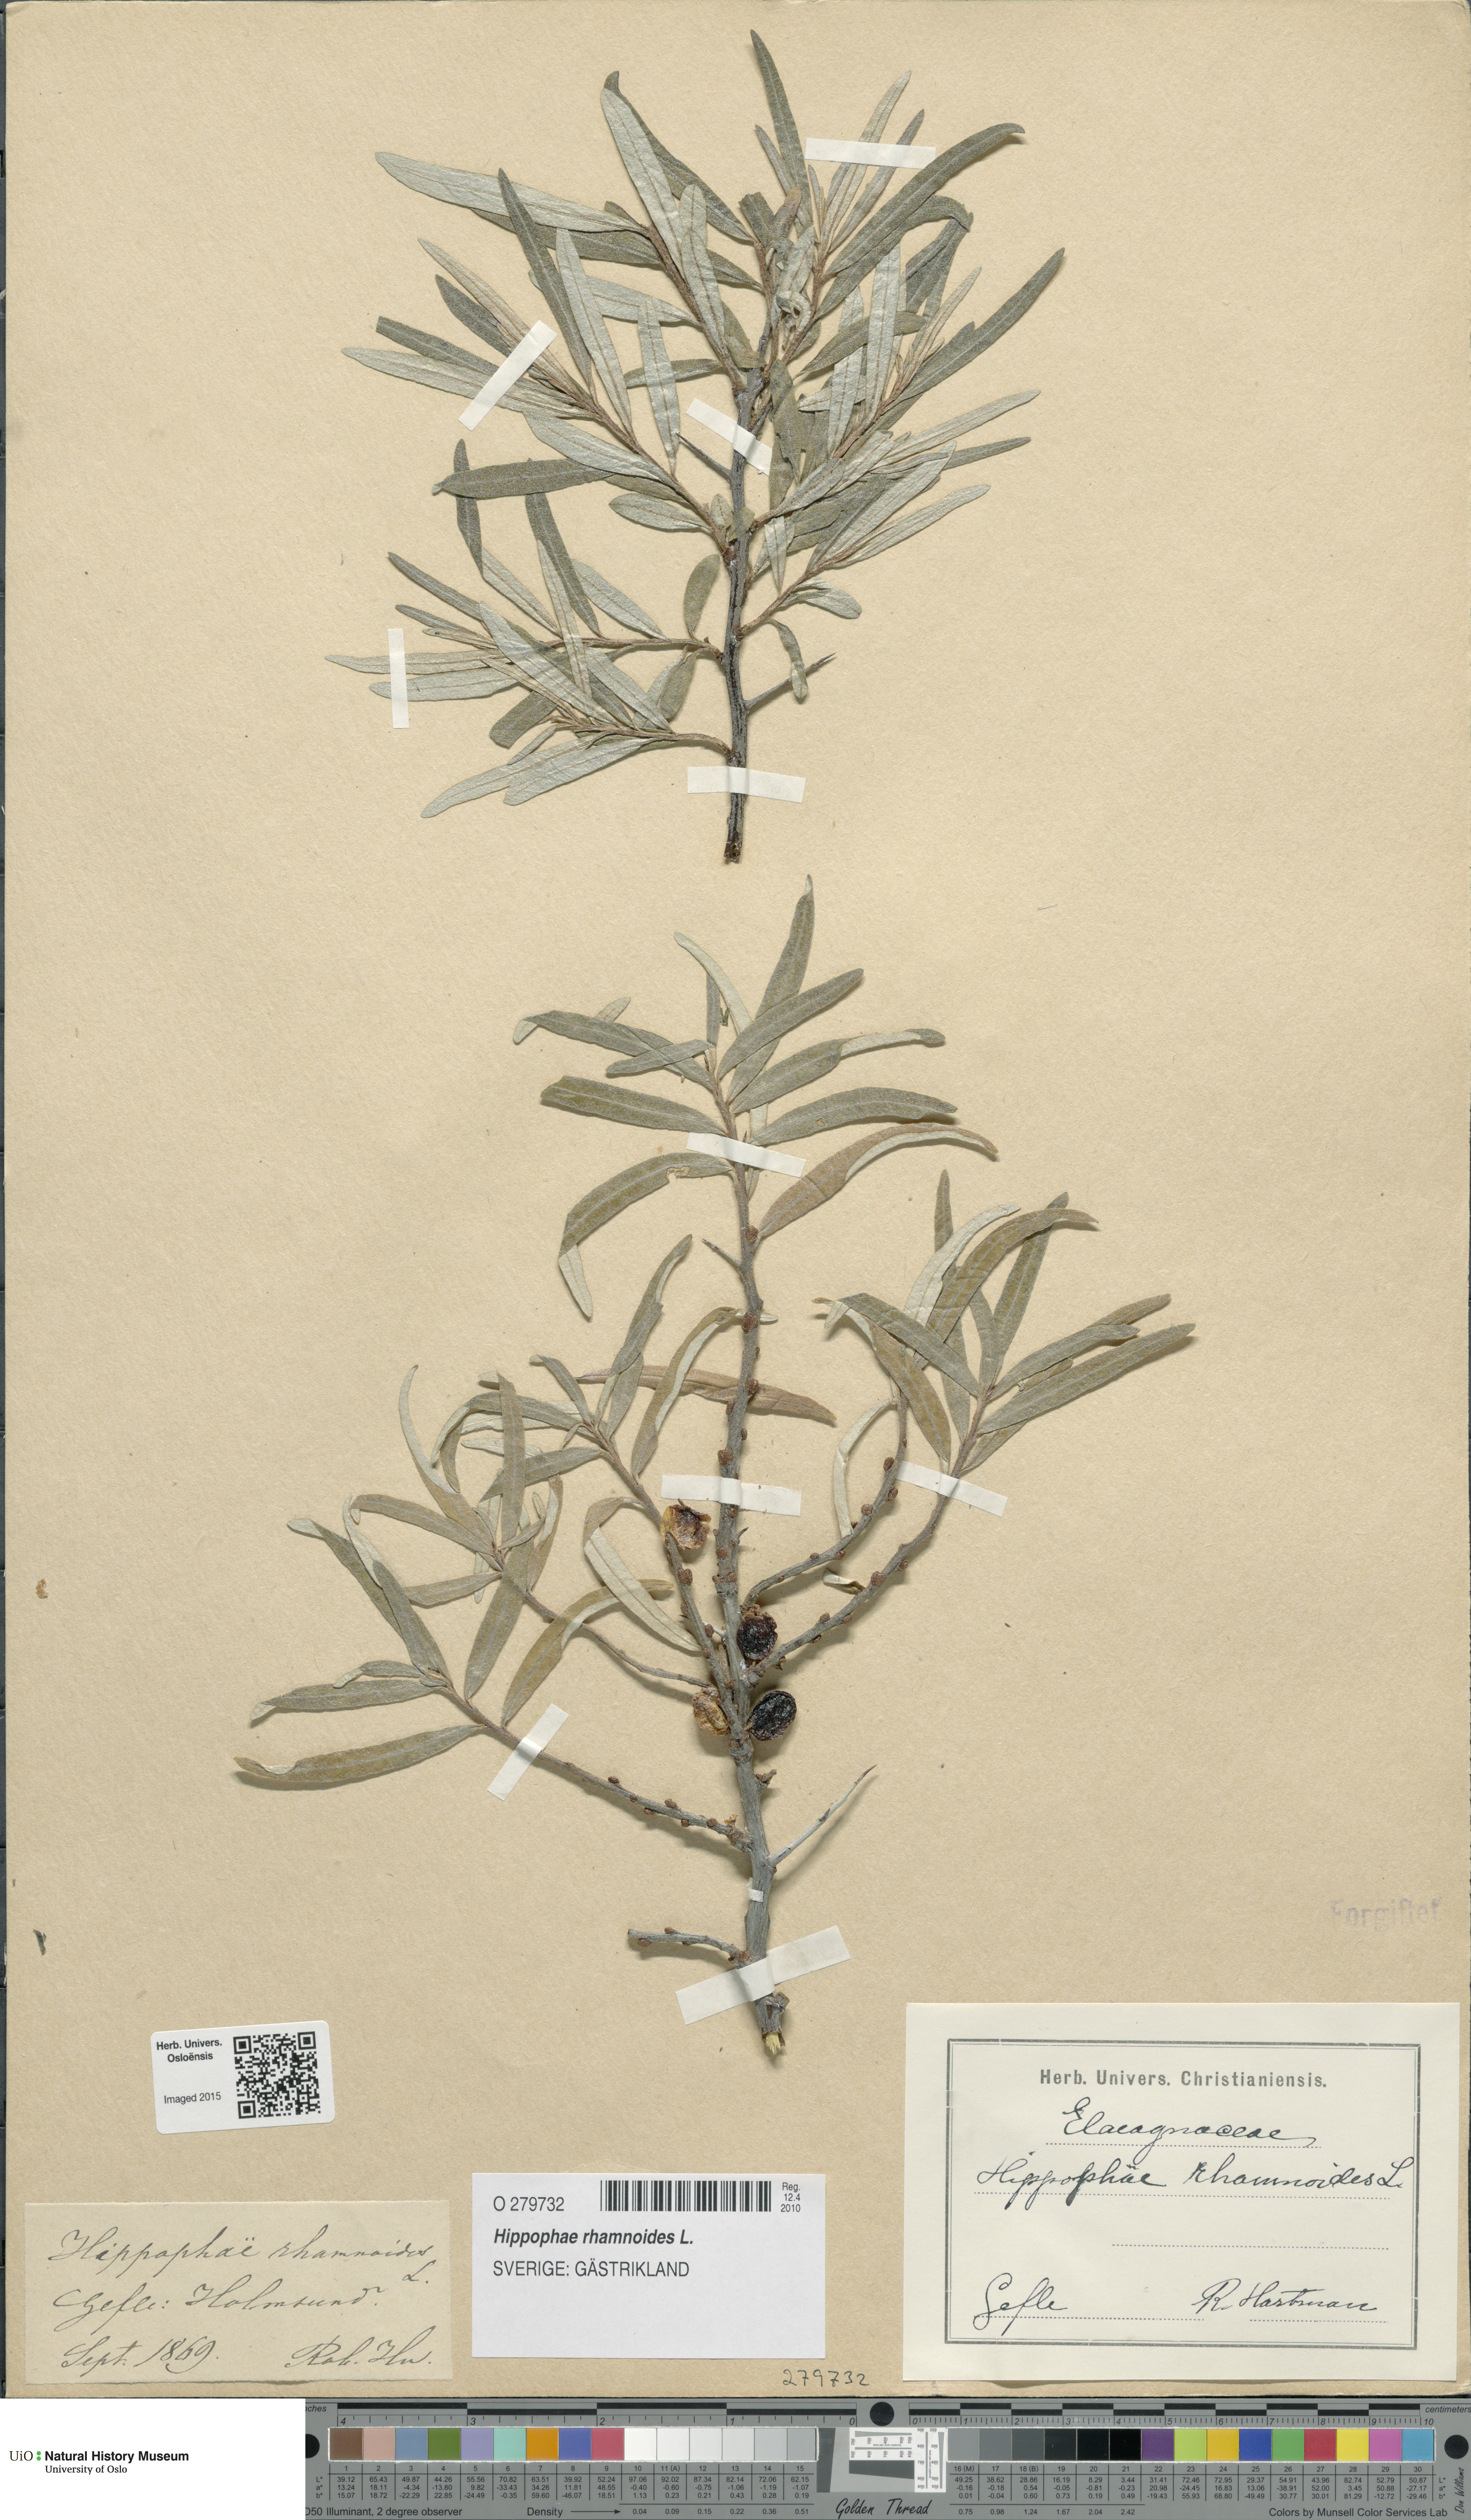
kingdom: Plantae
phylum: Tracheophyta
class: Magnoliopsida
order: Rosales
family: Elaeagnaceae
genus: Hippophae
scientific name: Hippophae rhamnoides
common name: Sea-buckthorn
